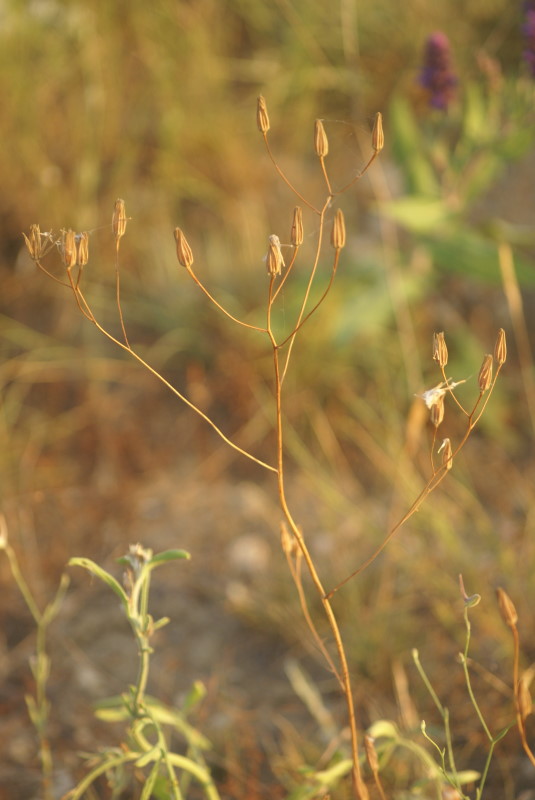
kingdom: Plantae
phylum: Tracheophyta
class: Magnoliopsida
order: Ranunculales
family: Ranunculaceae
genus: Delphinium
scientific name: Delphinium consolida
